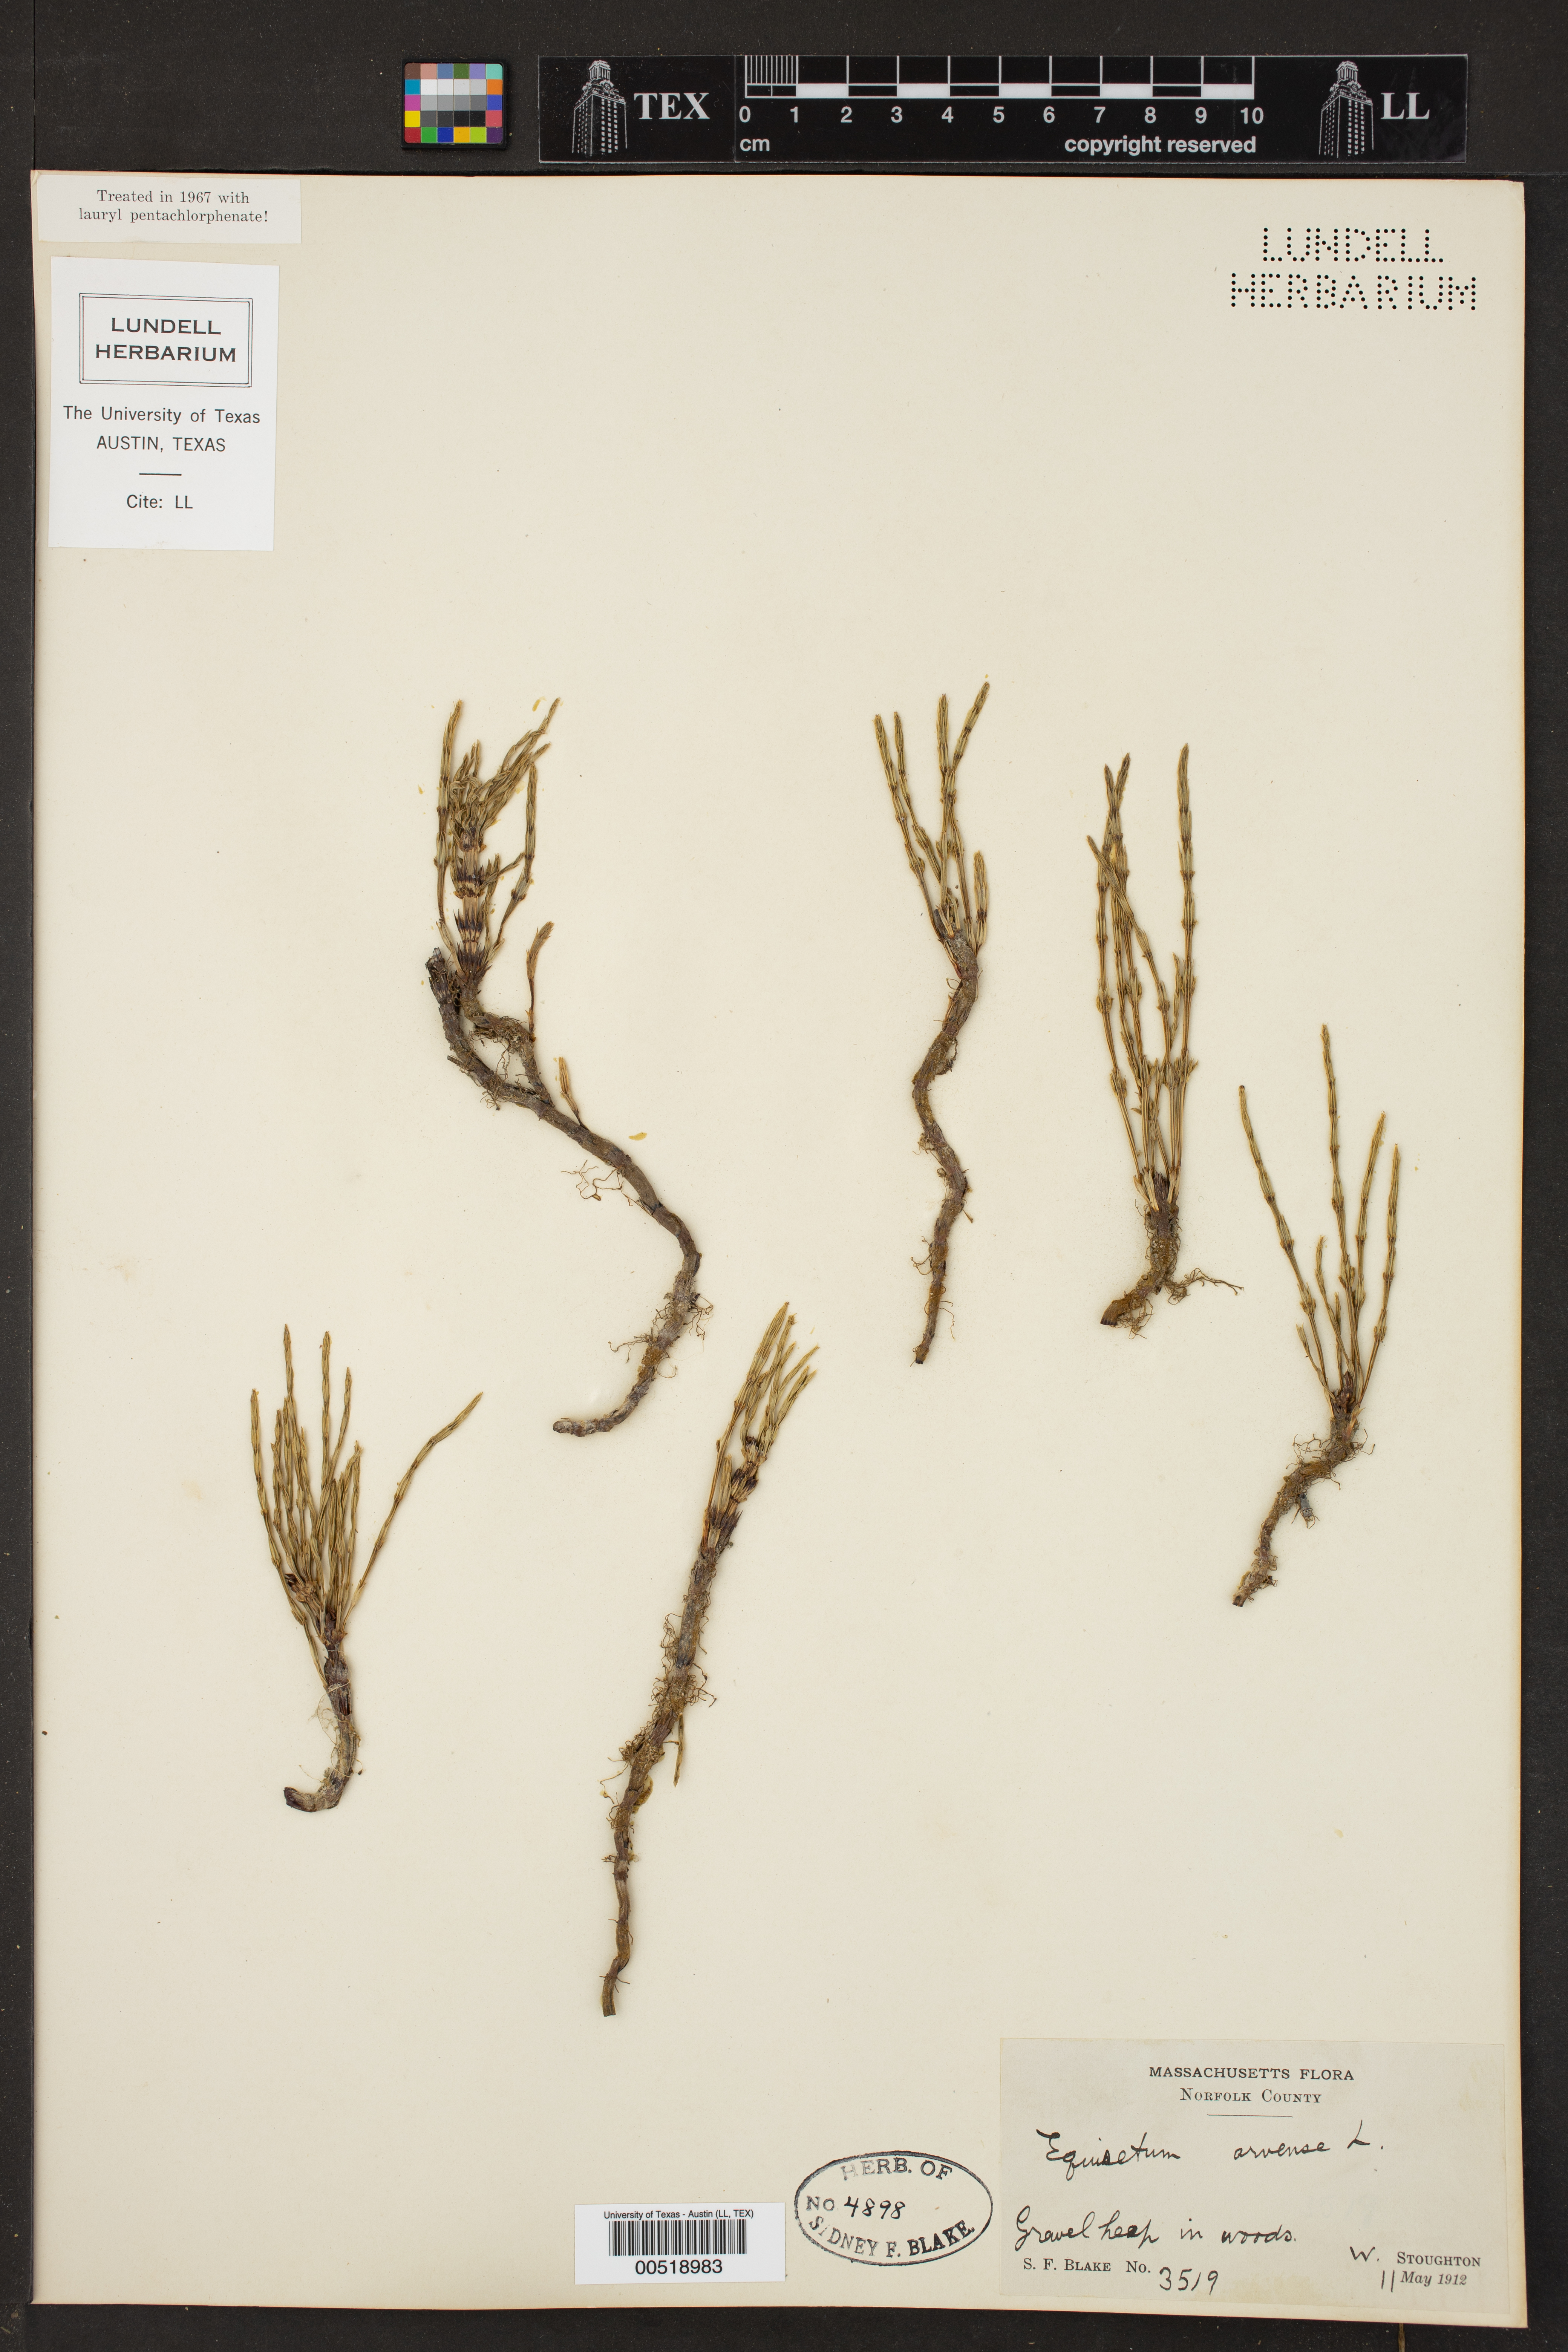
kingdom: Plantae
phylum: Tracheophyta
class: Polypodiopsida
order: Equisetales
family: Equisetaceae
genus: Equisetum
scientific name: Equisetum arvense
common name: Field horsetail
